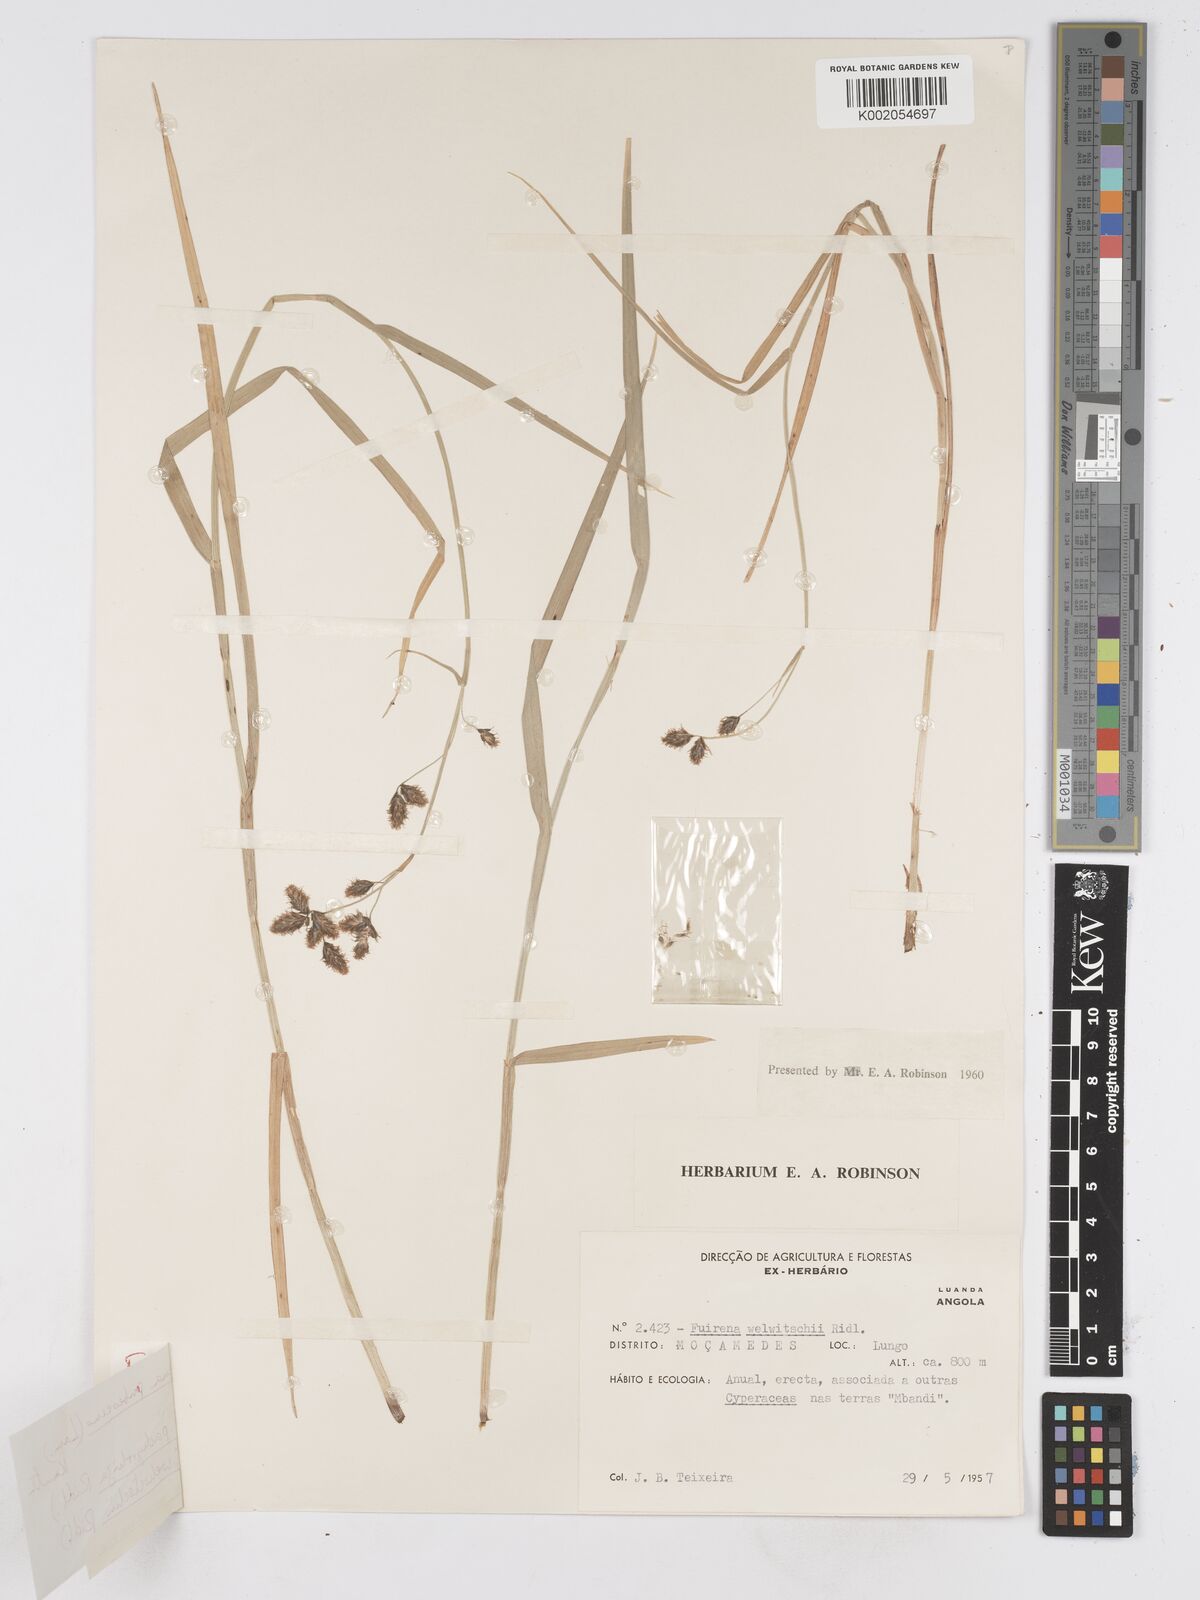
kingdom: Plantae
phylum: Tracheophyta
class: Liliopsida
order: Poales
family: Cyperaceae
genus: Fuirena
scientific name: Fuirena pachyrrhiza
